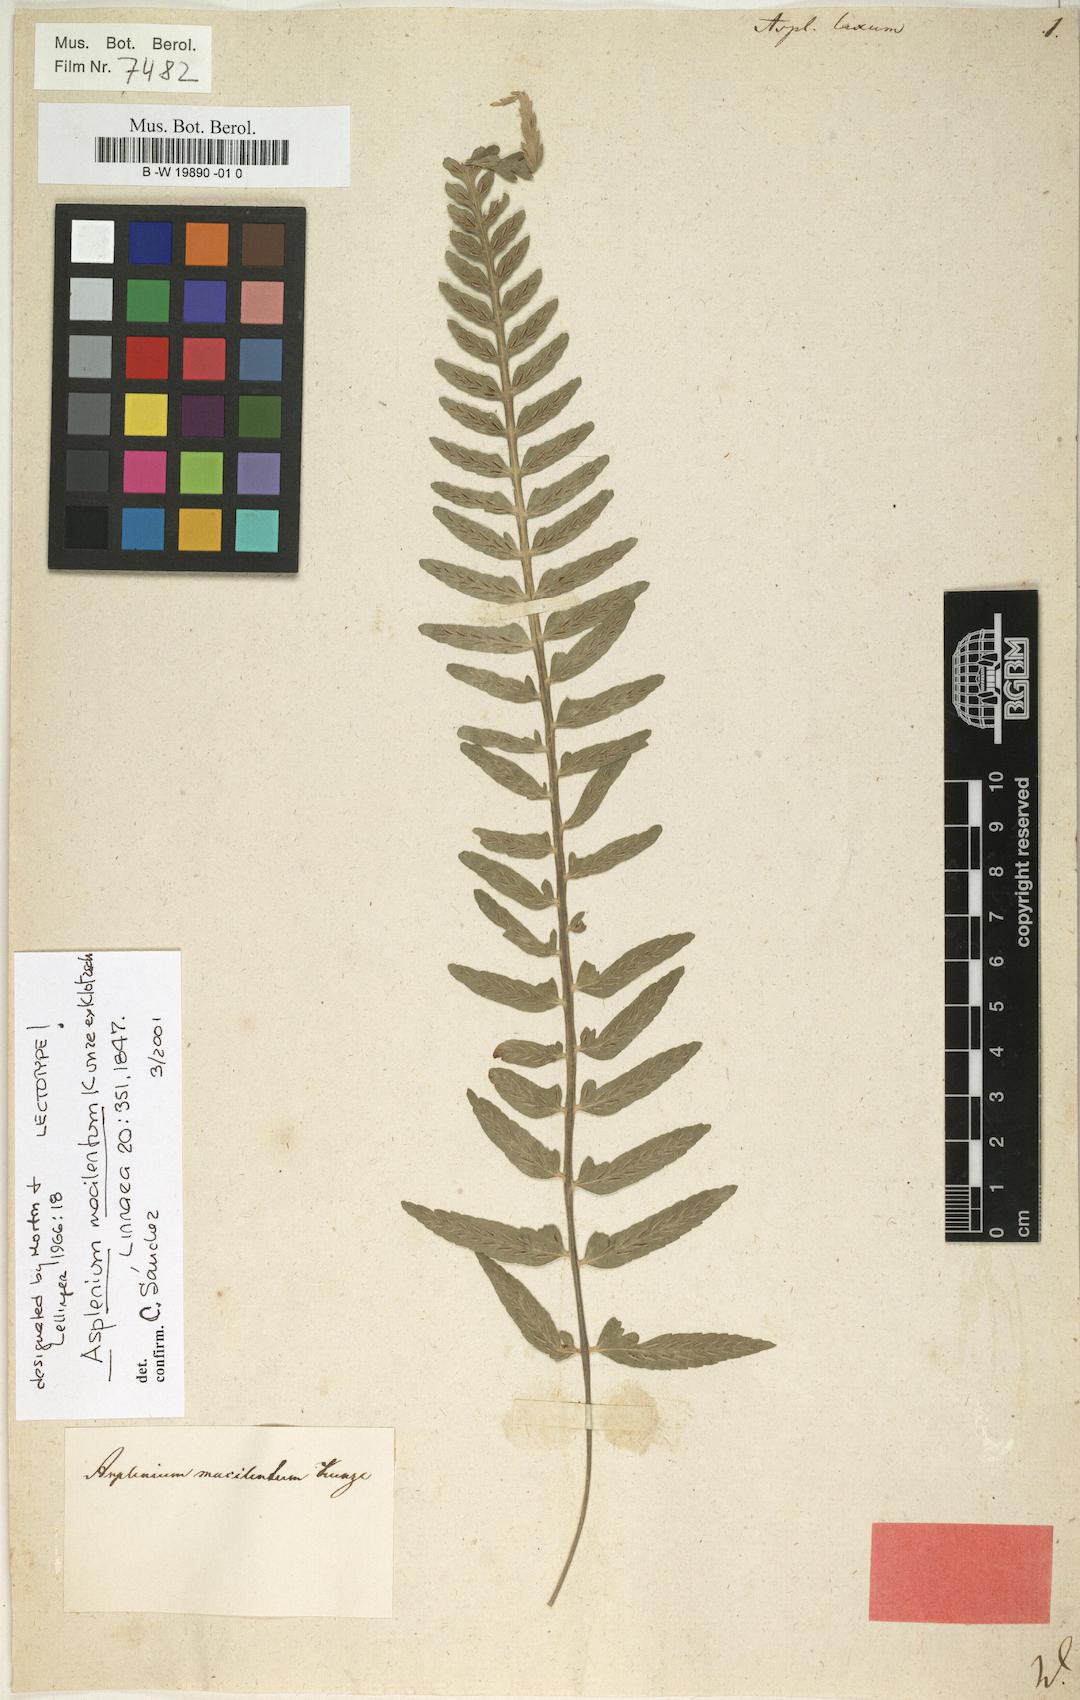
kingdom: Plantae
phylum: Tracheophyta
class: Polypodiopsida
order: Polypodiales
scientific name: Polypodiales
